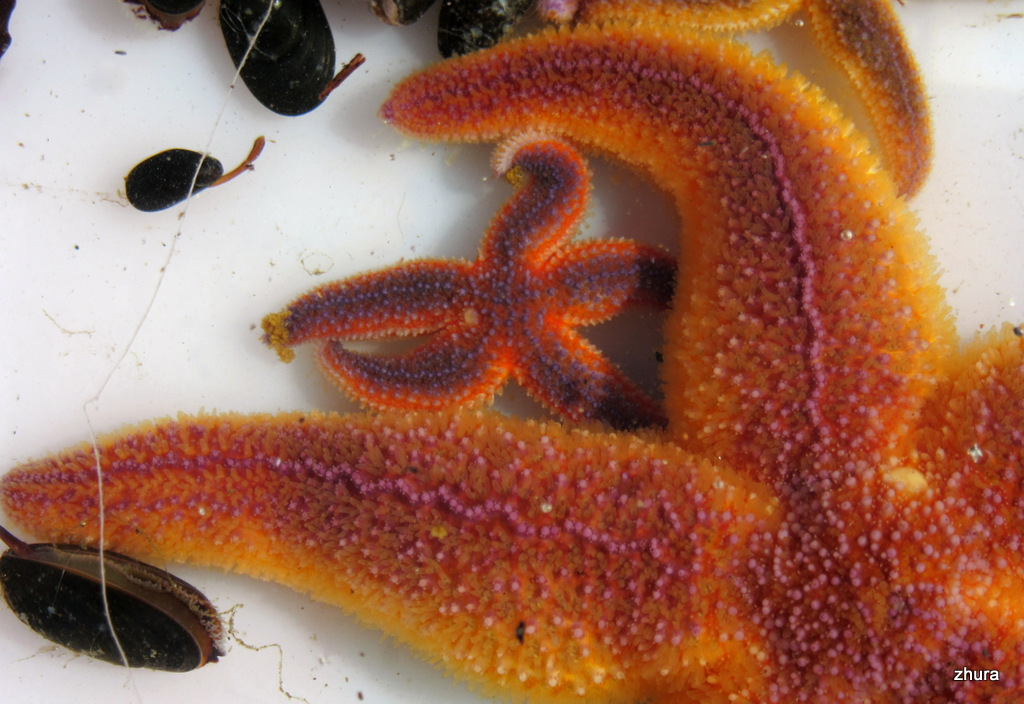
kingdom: Animalia
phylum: Echinodermata
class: Asteroidea
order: Forcipulatida
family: Asteriidae
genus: Asterias
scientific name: Asterias rubens
